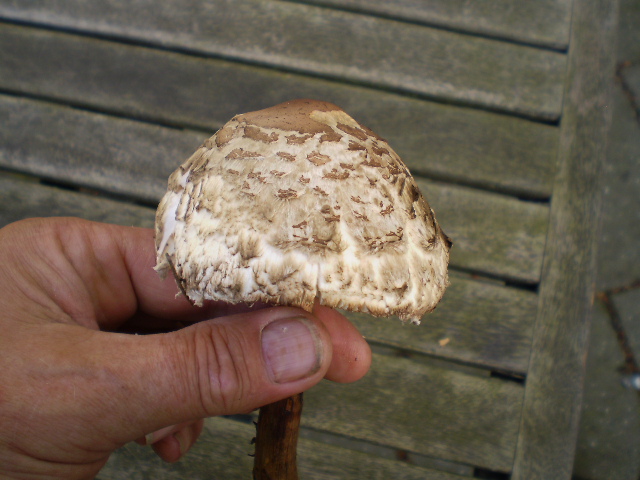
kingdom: Fungi
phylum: Basidiomycota
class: Agaricomycetes
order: Agaricales
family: Agaricaceae
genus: Chlorophyllum
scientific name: Chlorophyllum olivieri
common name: almindelig rabarberhat
